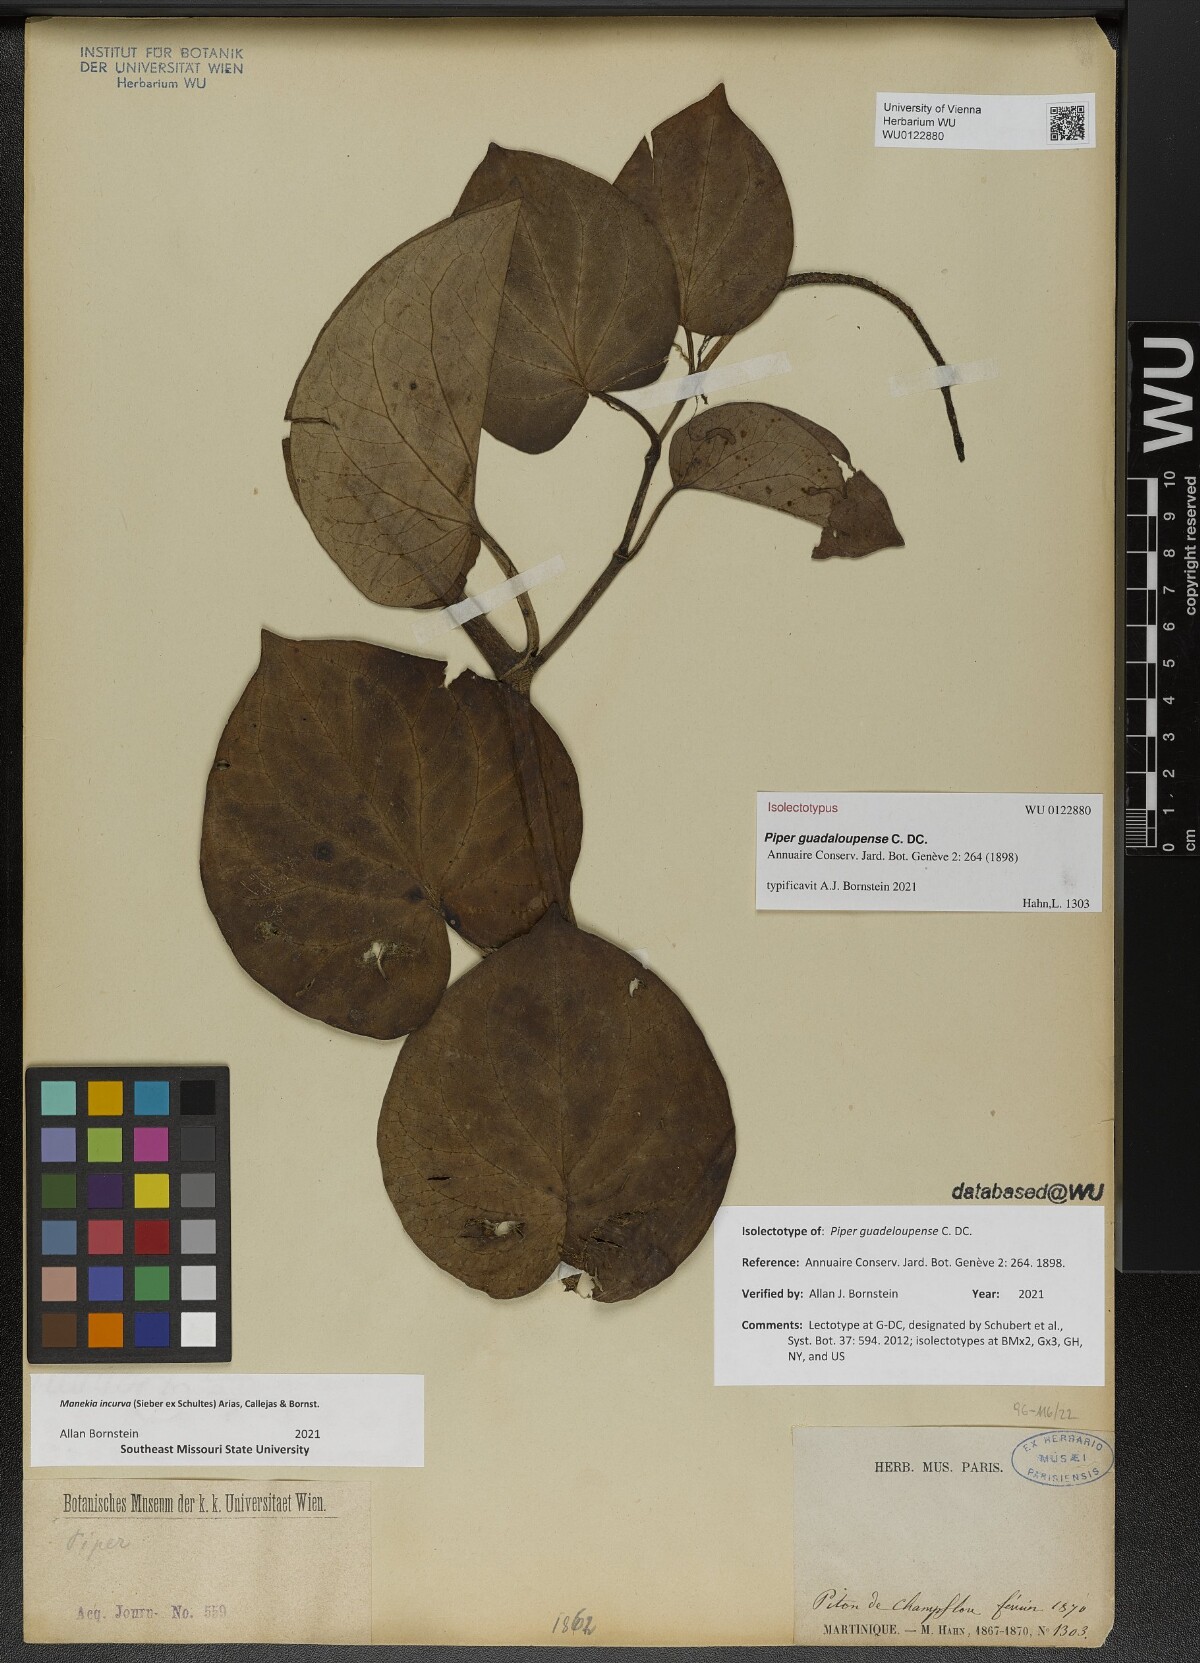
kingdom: Plantae
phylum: Tracheophyta
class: Magnoliopsida
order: Piperales
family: Piperaceae
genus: Manekia
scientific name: Manekia incurva
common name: Wild black-pepper
